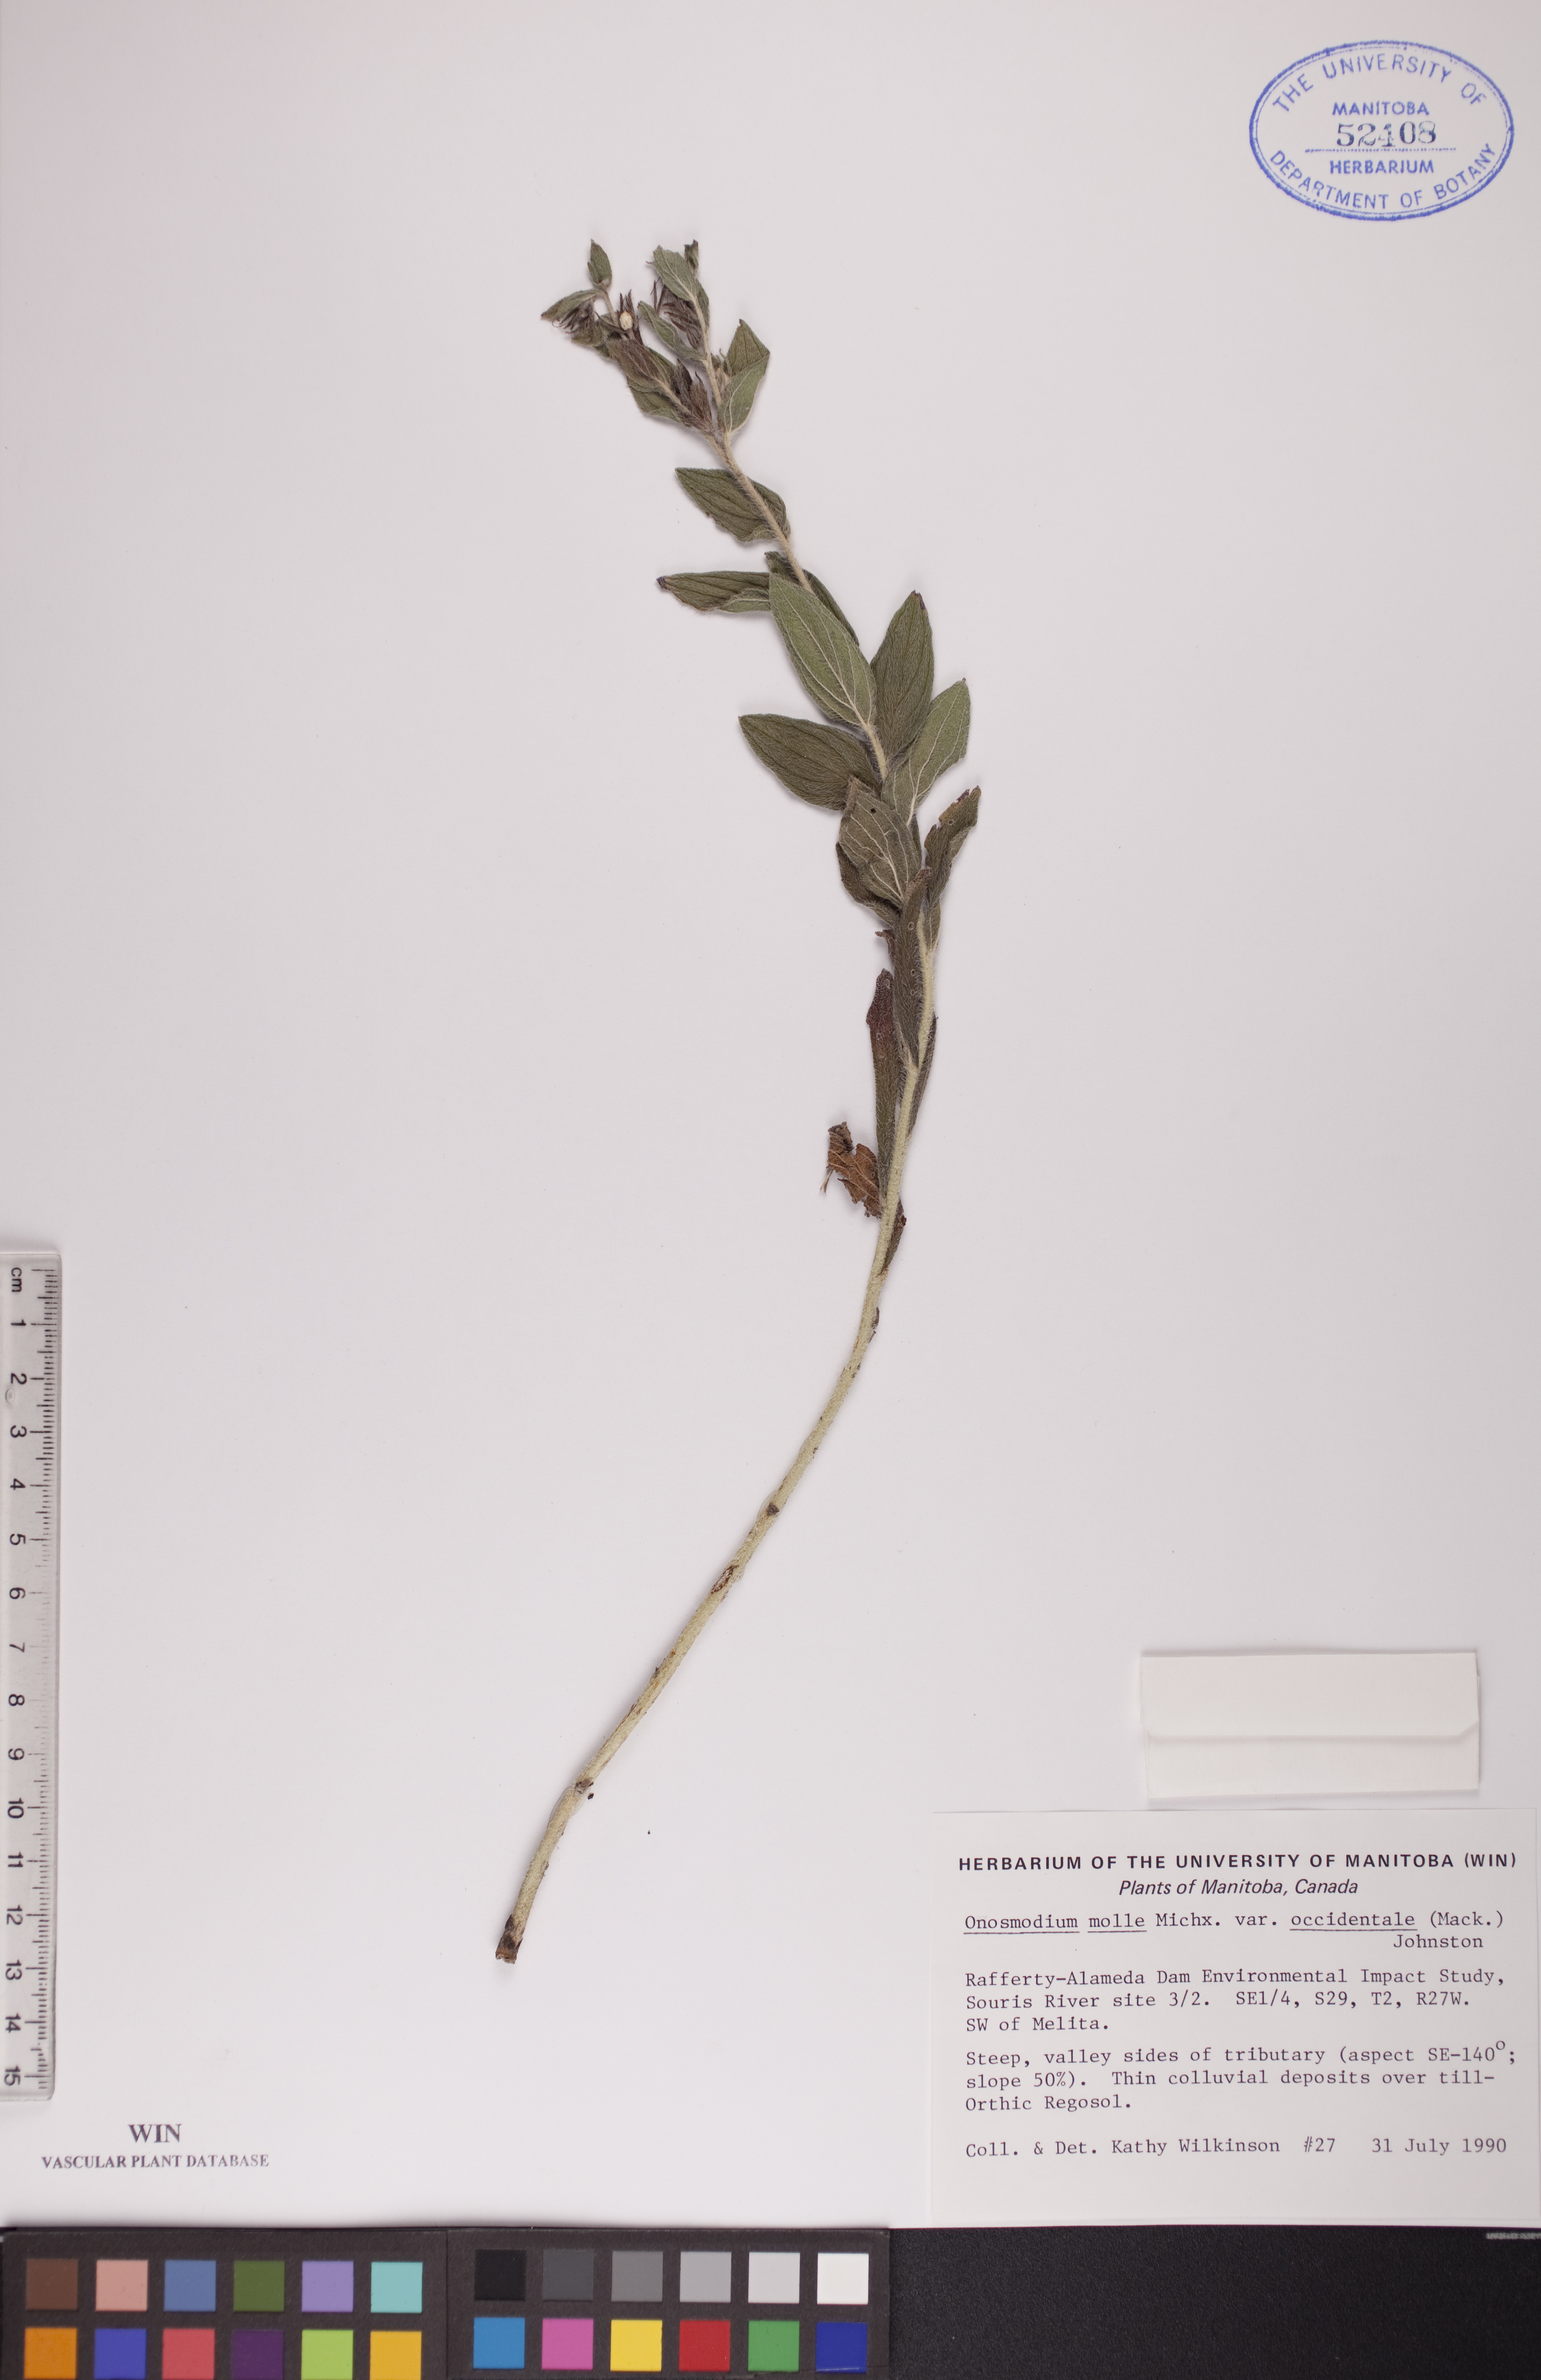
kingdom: Plantae
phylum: Tracheophyta
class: Magnoliopsida
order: Boraginales
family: Boraginaceae
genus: Lithospermum
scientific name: Lithospermum occidentale
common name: Western false gromwell
